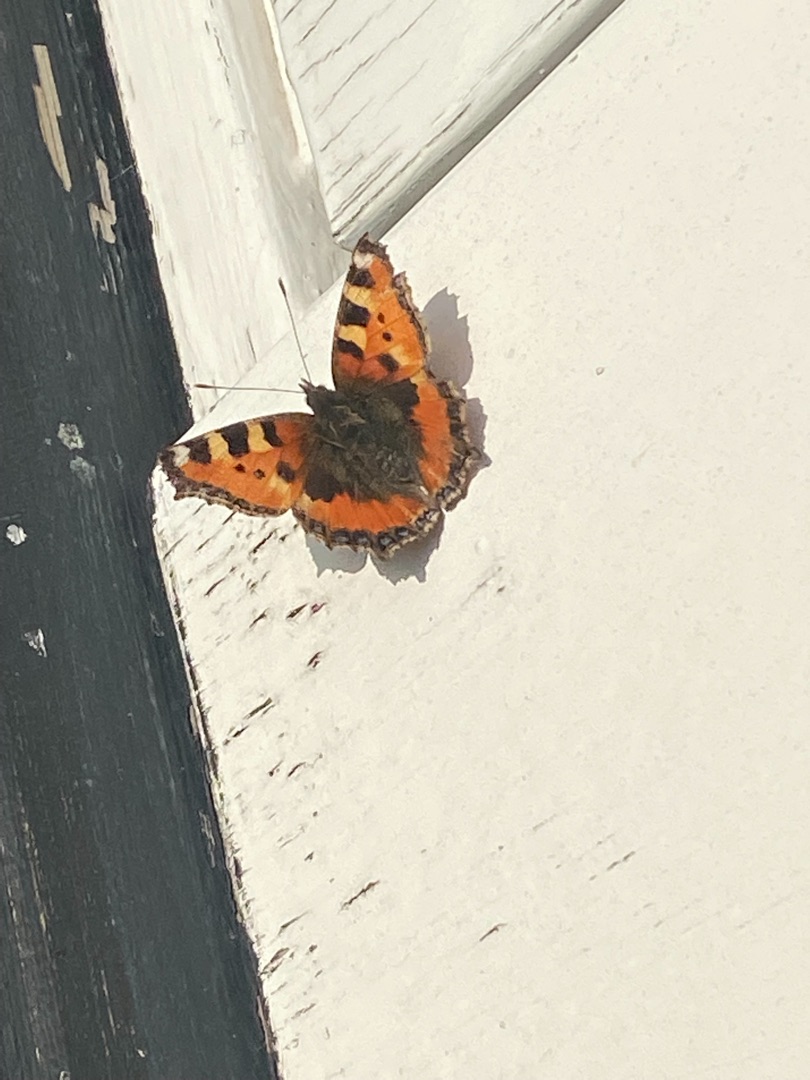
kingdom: Animalia
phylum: Arthropoda
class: Insecta
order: Lepidoptera
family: Nymphalidae
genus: Aglais
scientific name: Aglais urticae
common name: Nældens takvinge
